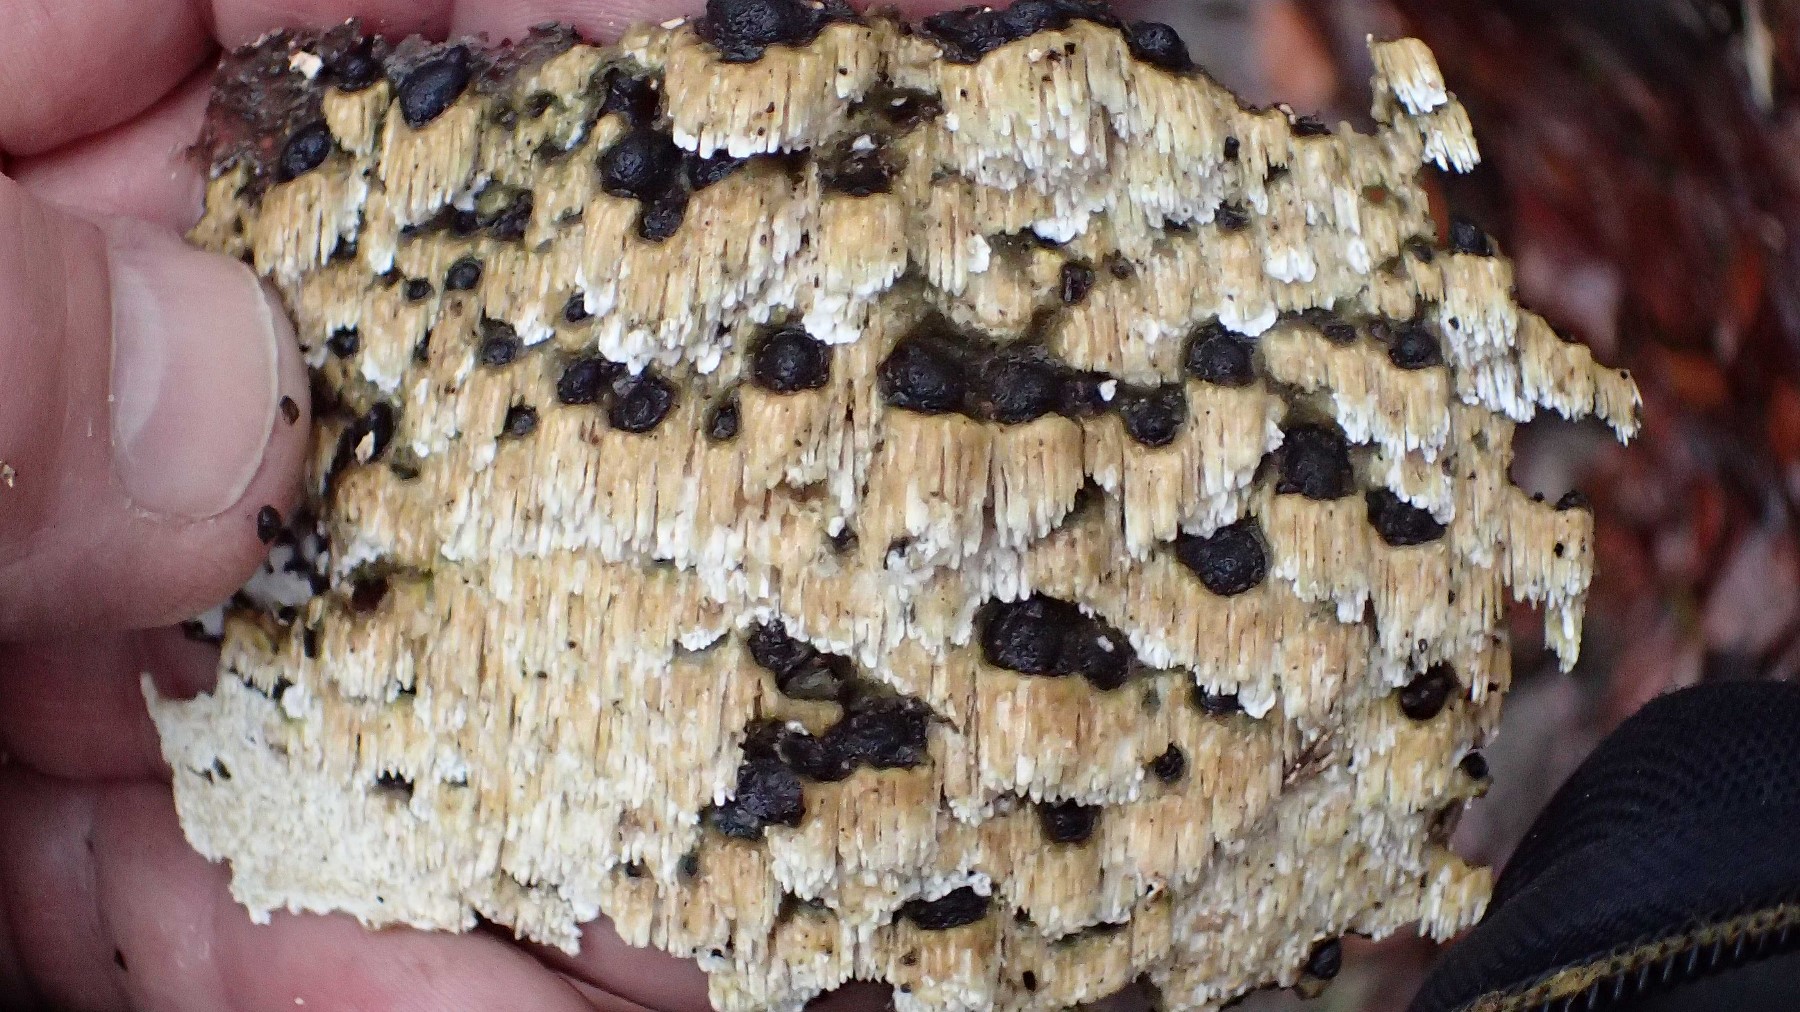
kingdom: Fungi
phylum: Basidiomycota
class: Agaricomycetes
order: Hymenochaetales
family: Schizoporaceae
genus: Schizopora
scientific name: Schizopora paradoxa
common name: hvid tandsvamp
